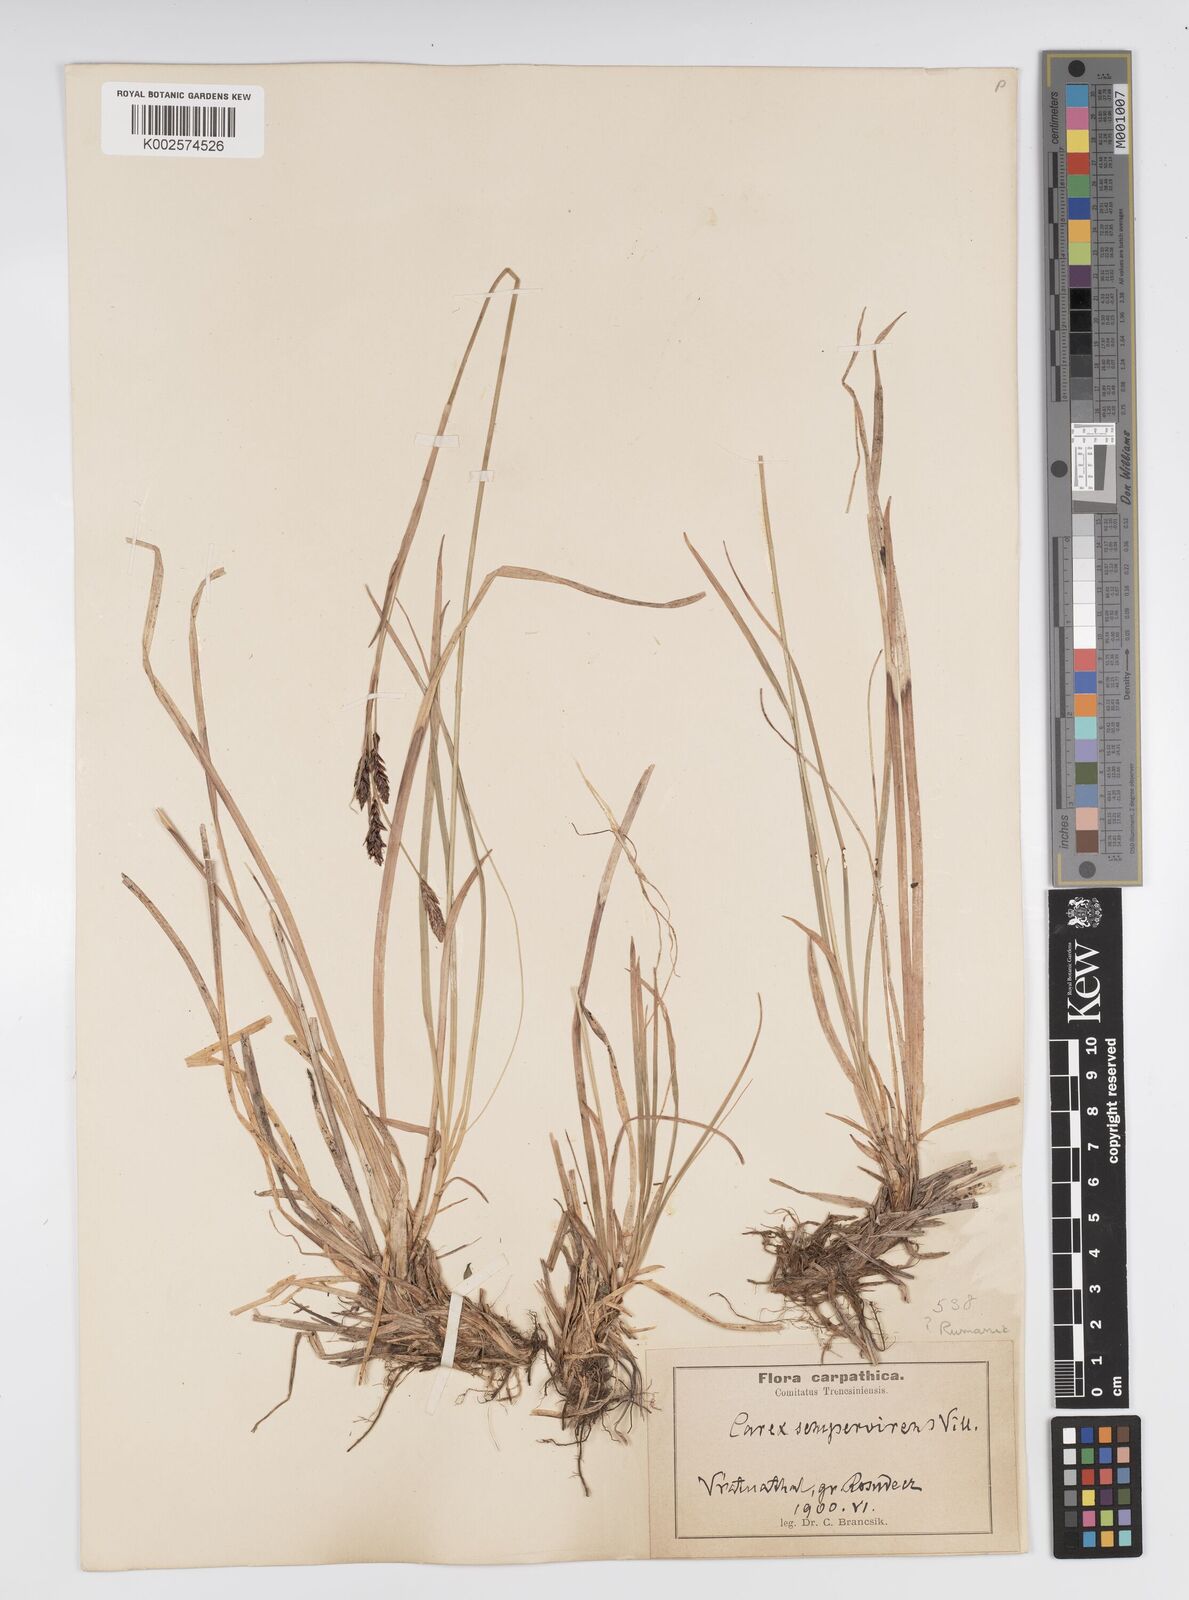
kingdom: Plantae
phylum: Tracheophyta
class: Liliopsida
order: Poales
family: Cyperaceae
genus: Carex
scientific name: Carex sempervirens
